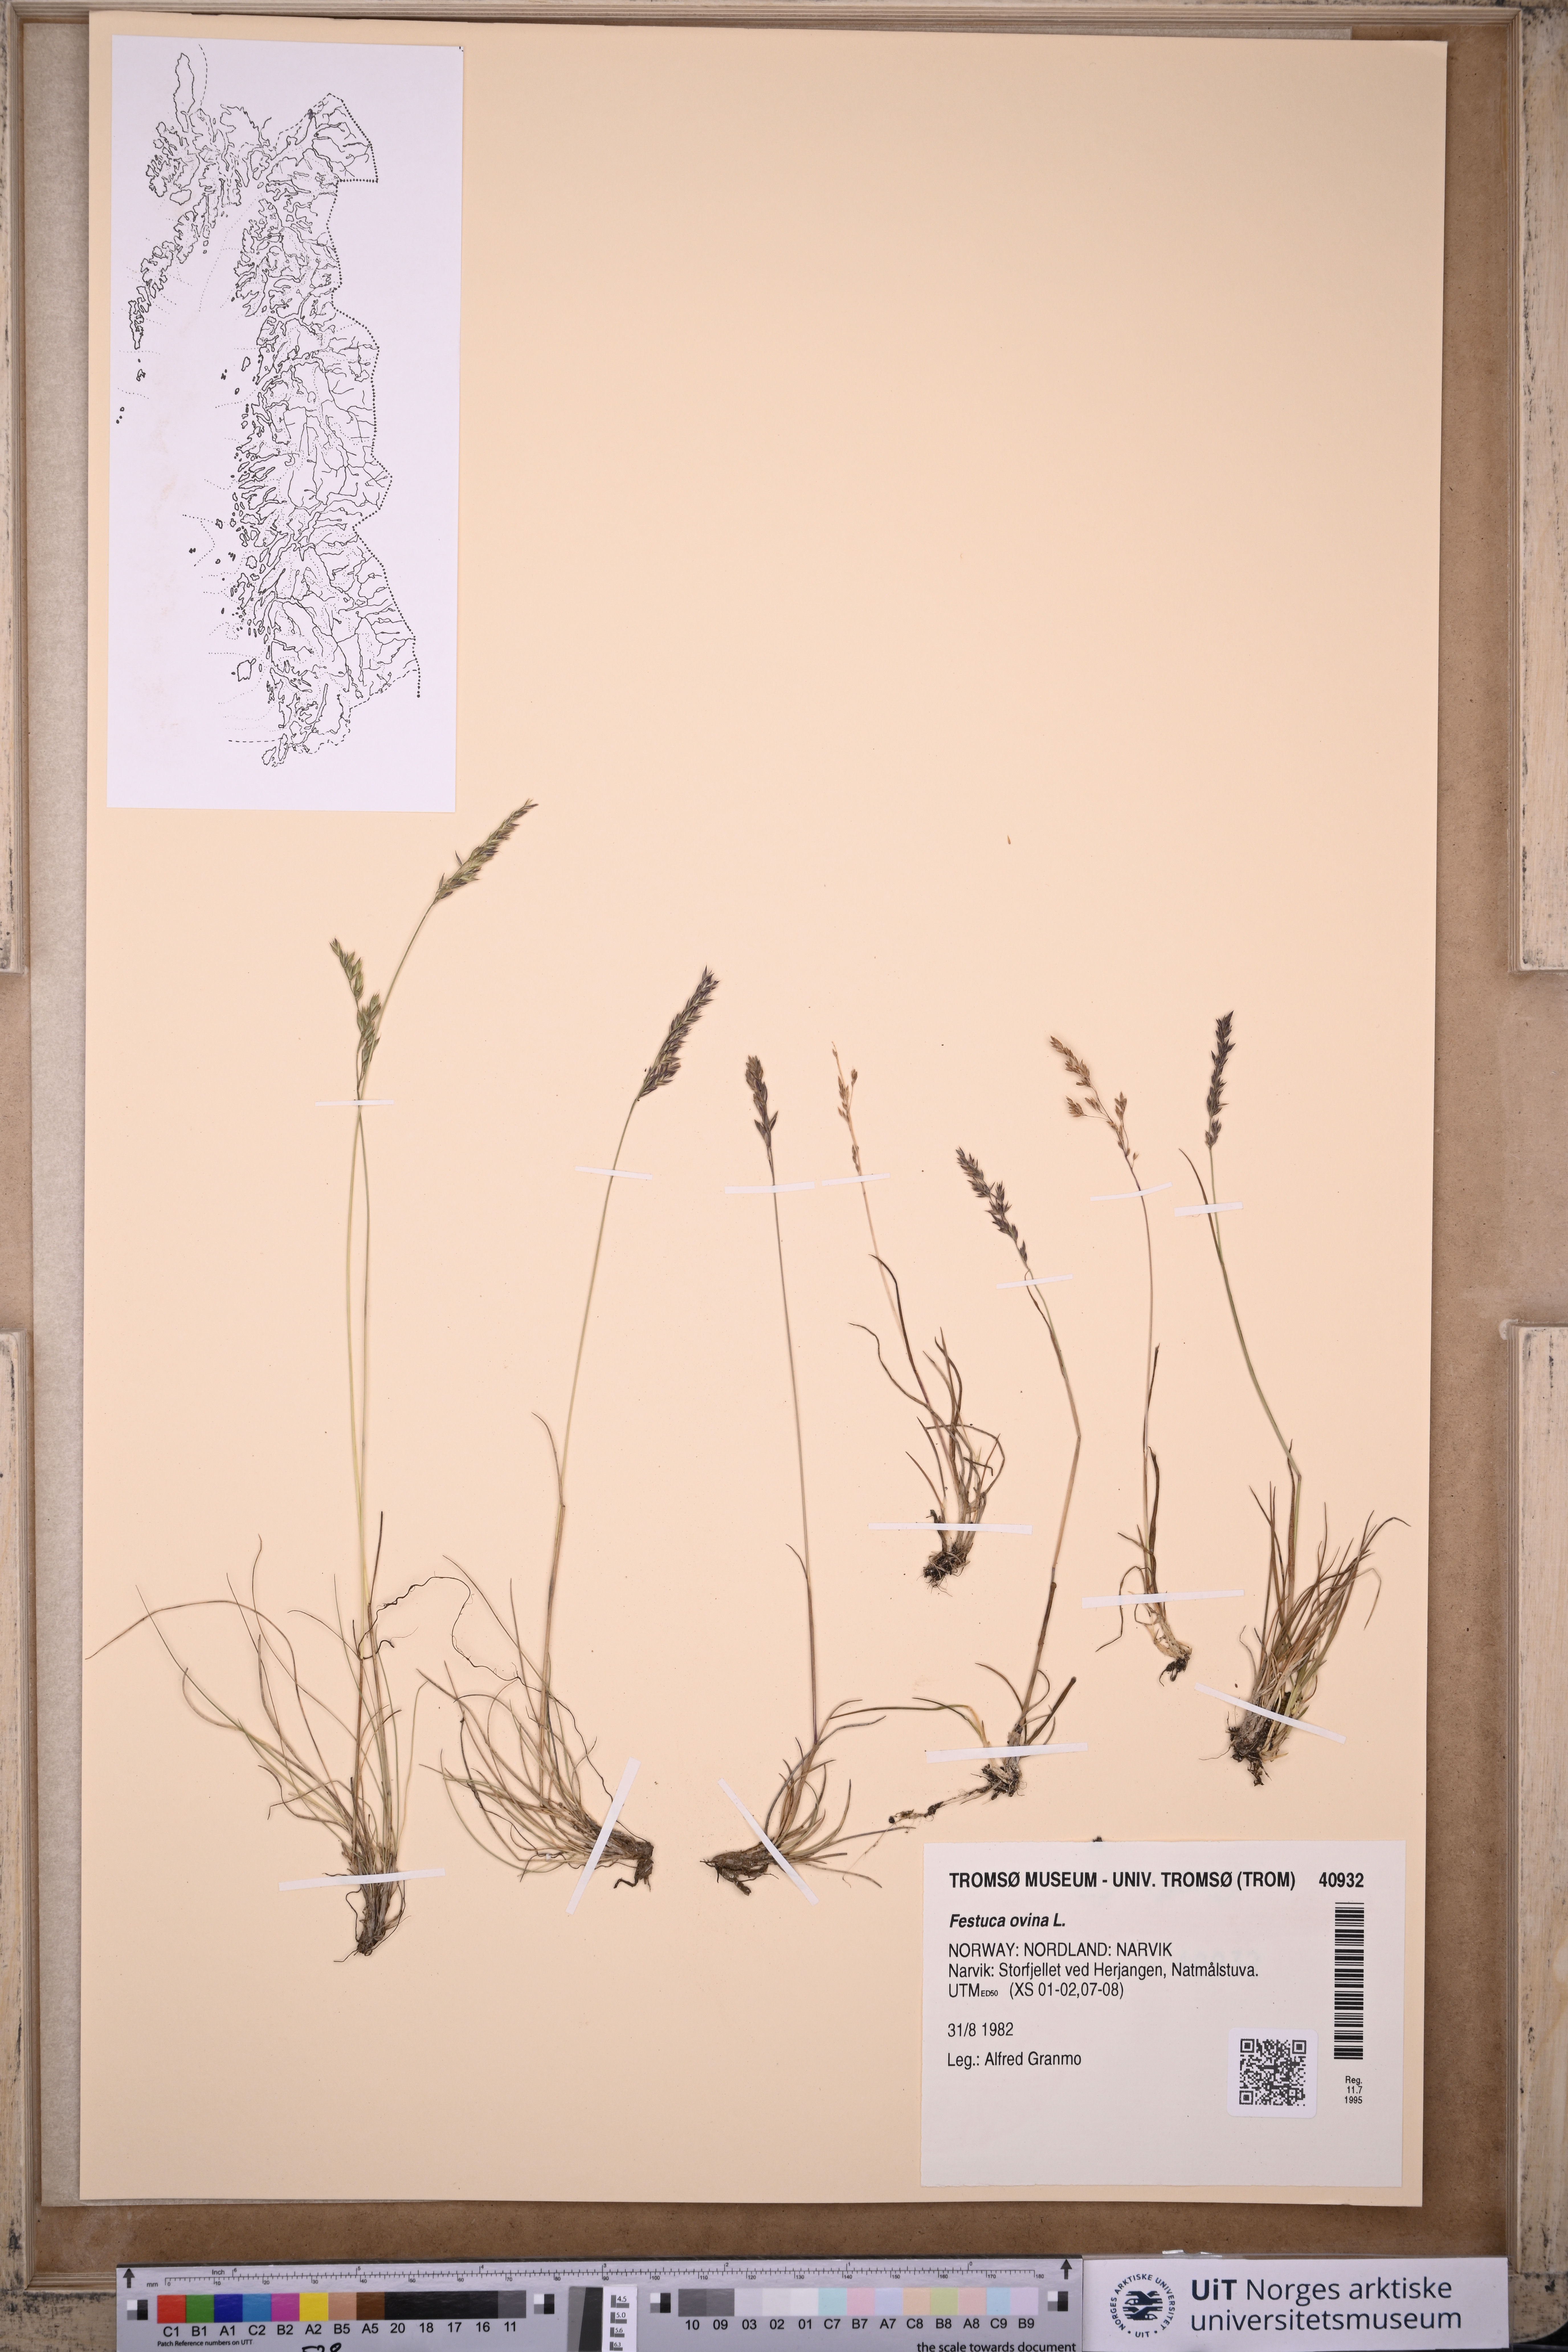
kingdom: Plantae
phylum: Tracheophyta
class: Liliopsida
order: Poales
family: Poaceae
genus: Festuca
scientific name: Festuca ovina
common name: Sheep fescue
